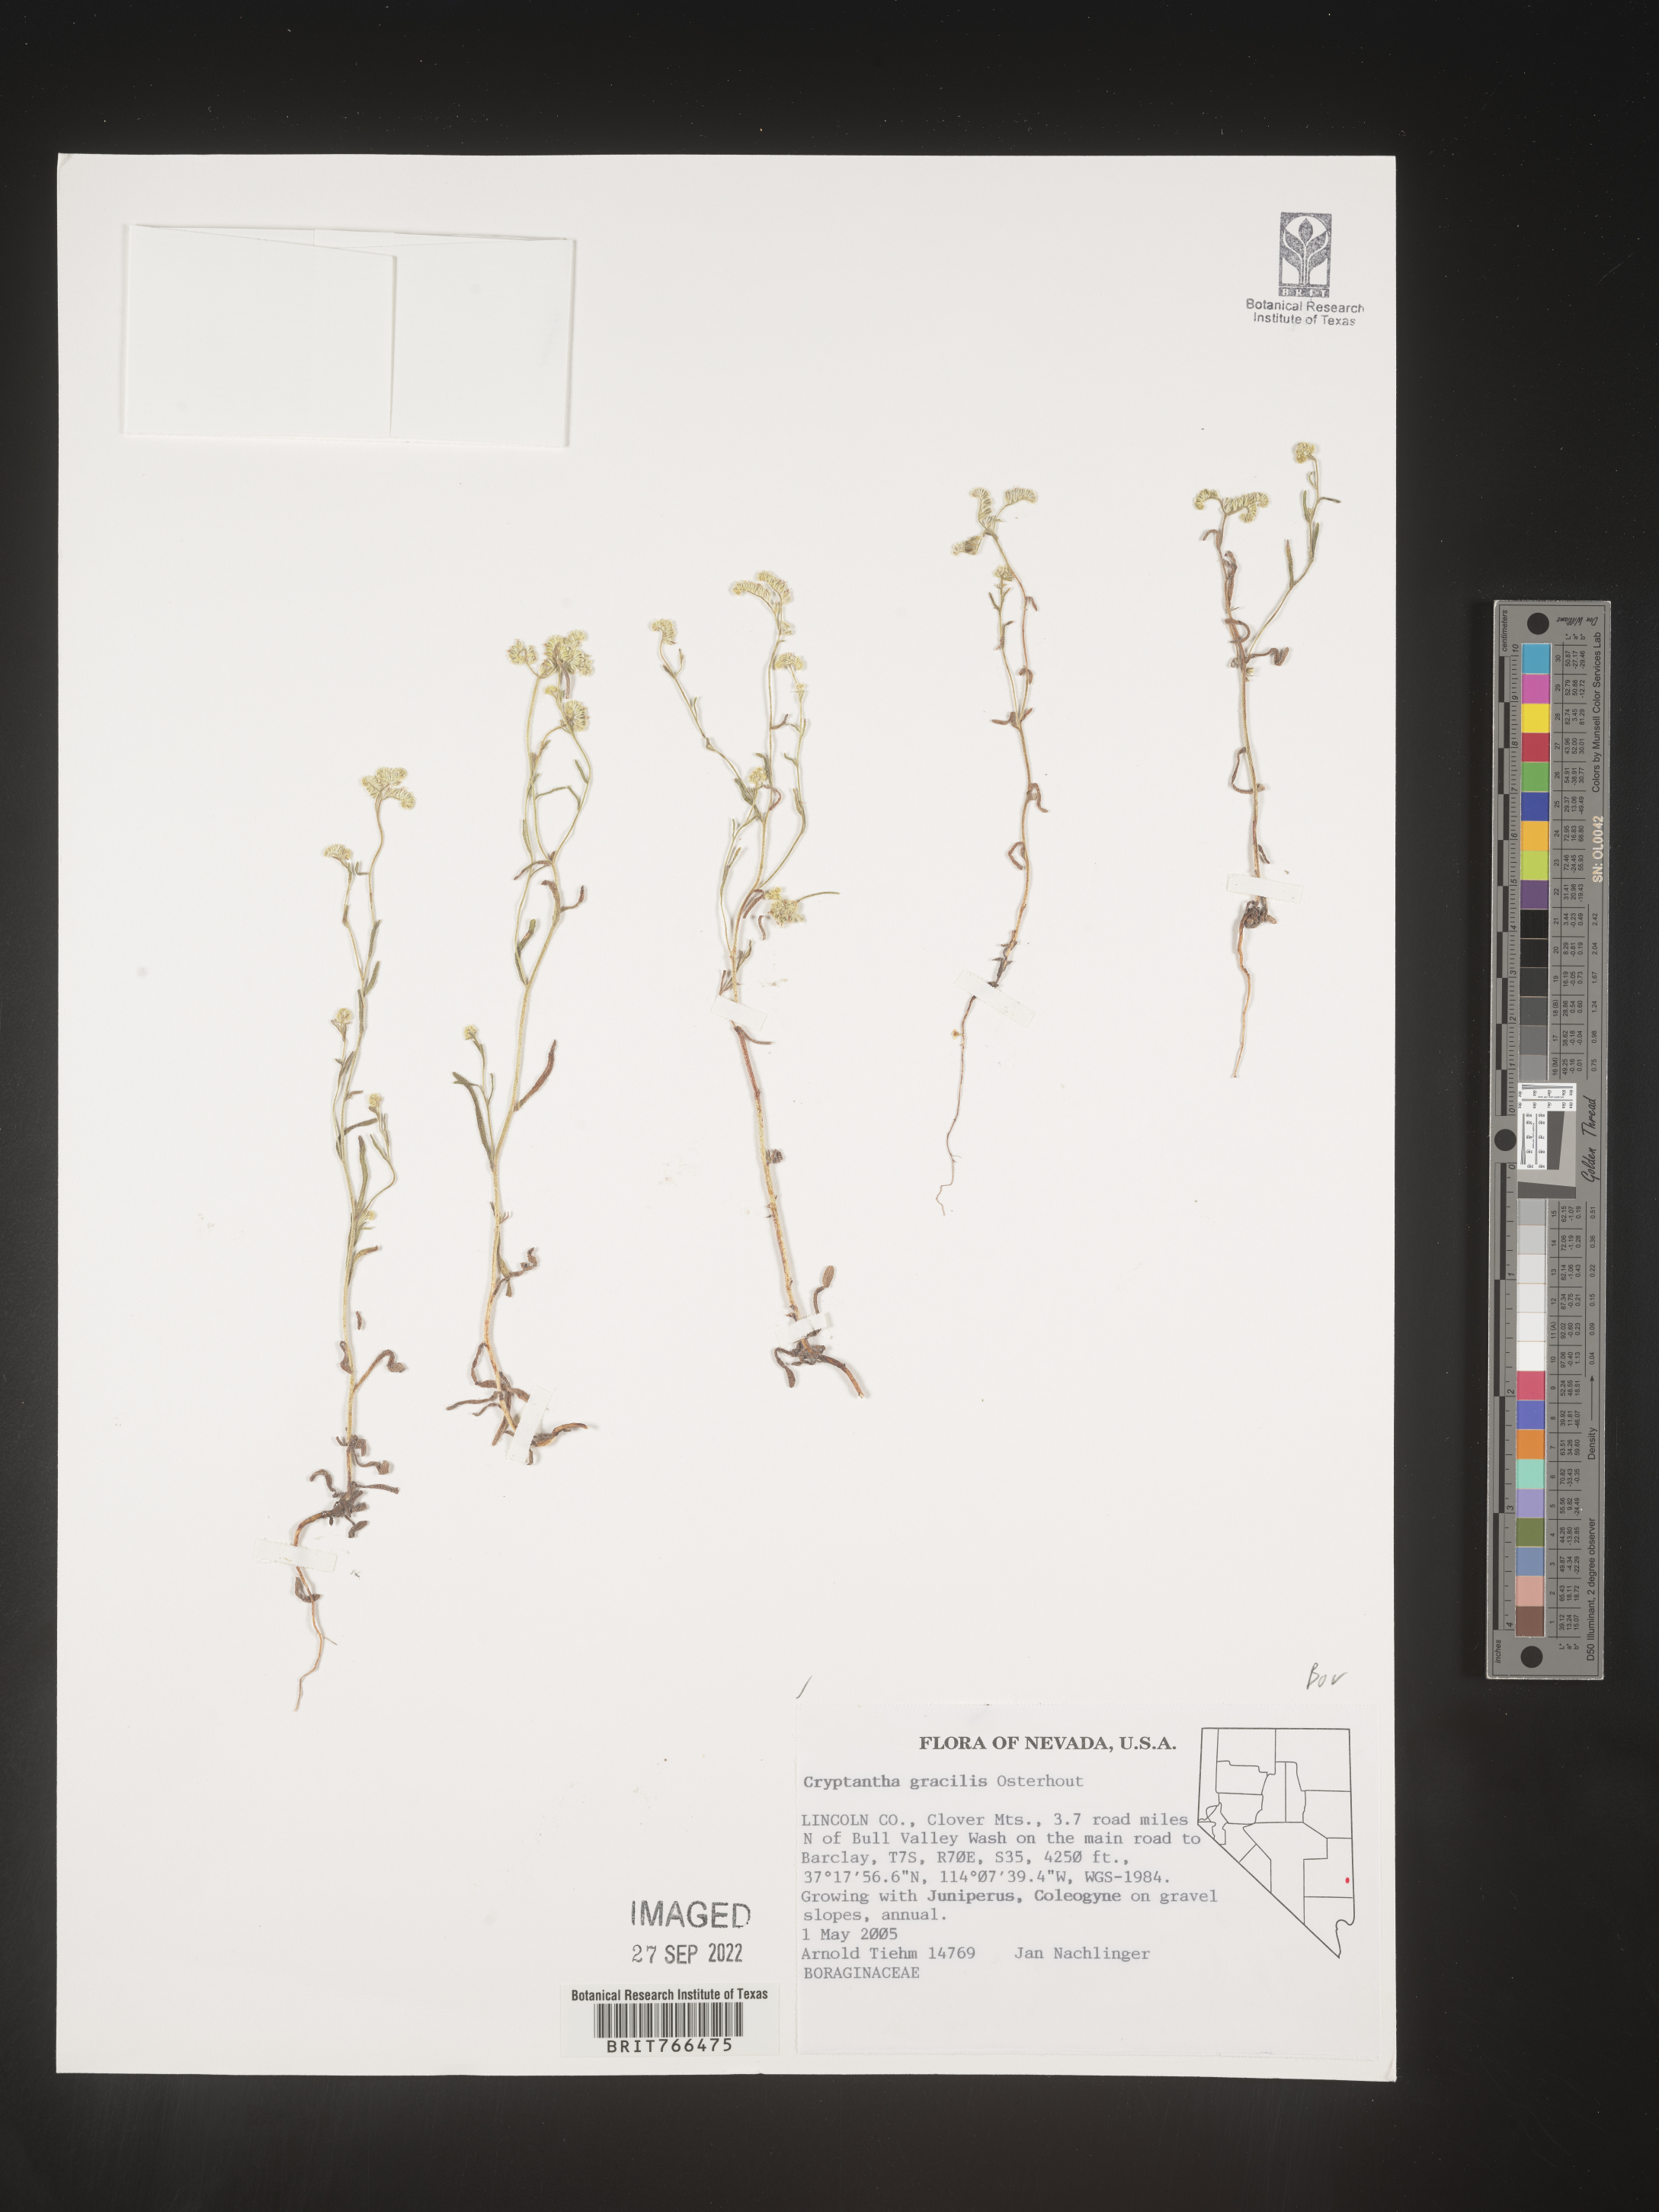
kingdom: Plantae
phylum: Tracheophyta
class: Magnoliopsida
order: Boraginales
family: Boraginaceae
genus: Cryptantha
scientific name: Cryptantha
